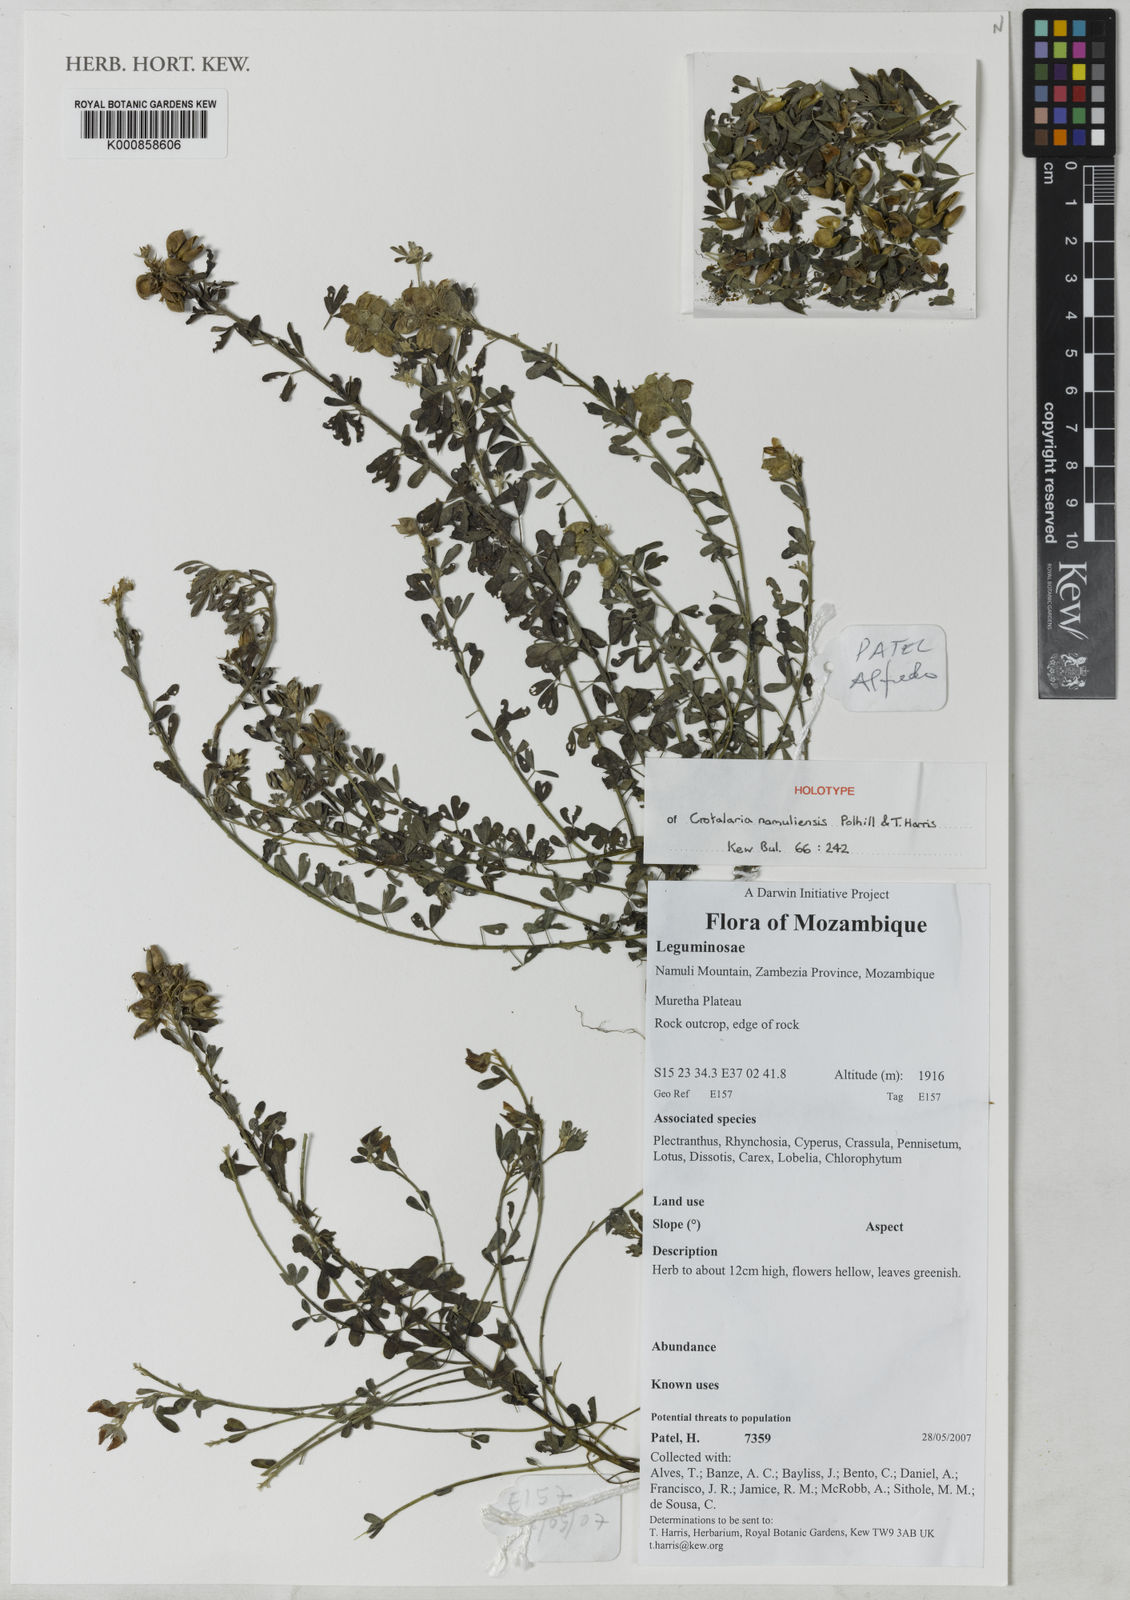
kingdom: Plantae
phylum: Tracheophyta
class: Magnoliopsida
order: Fabales
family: Fabaceae
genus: Crotalaria
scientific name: Crotalaria namuliensis
